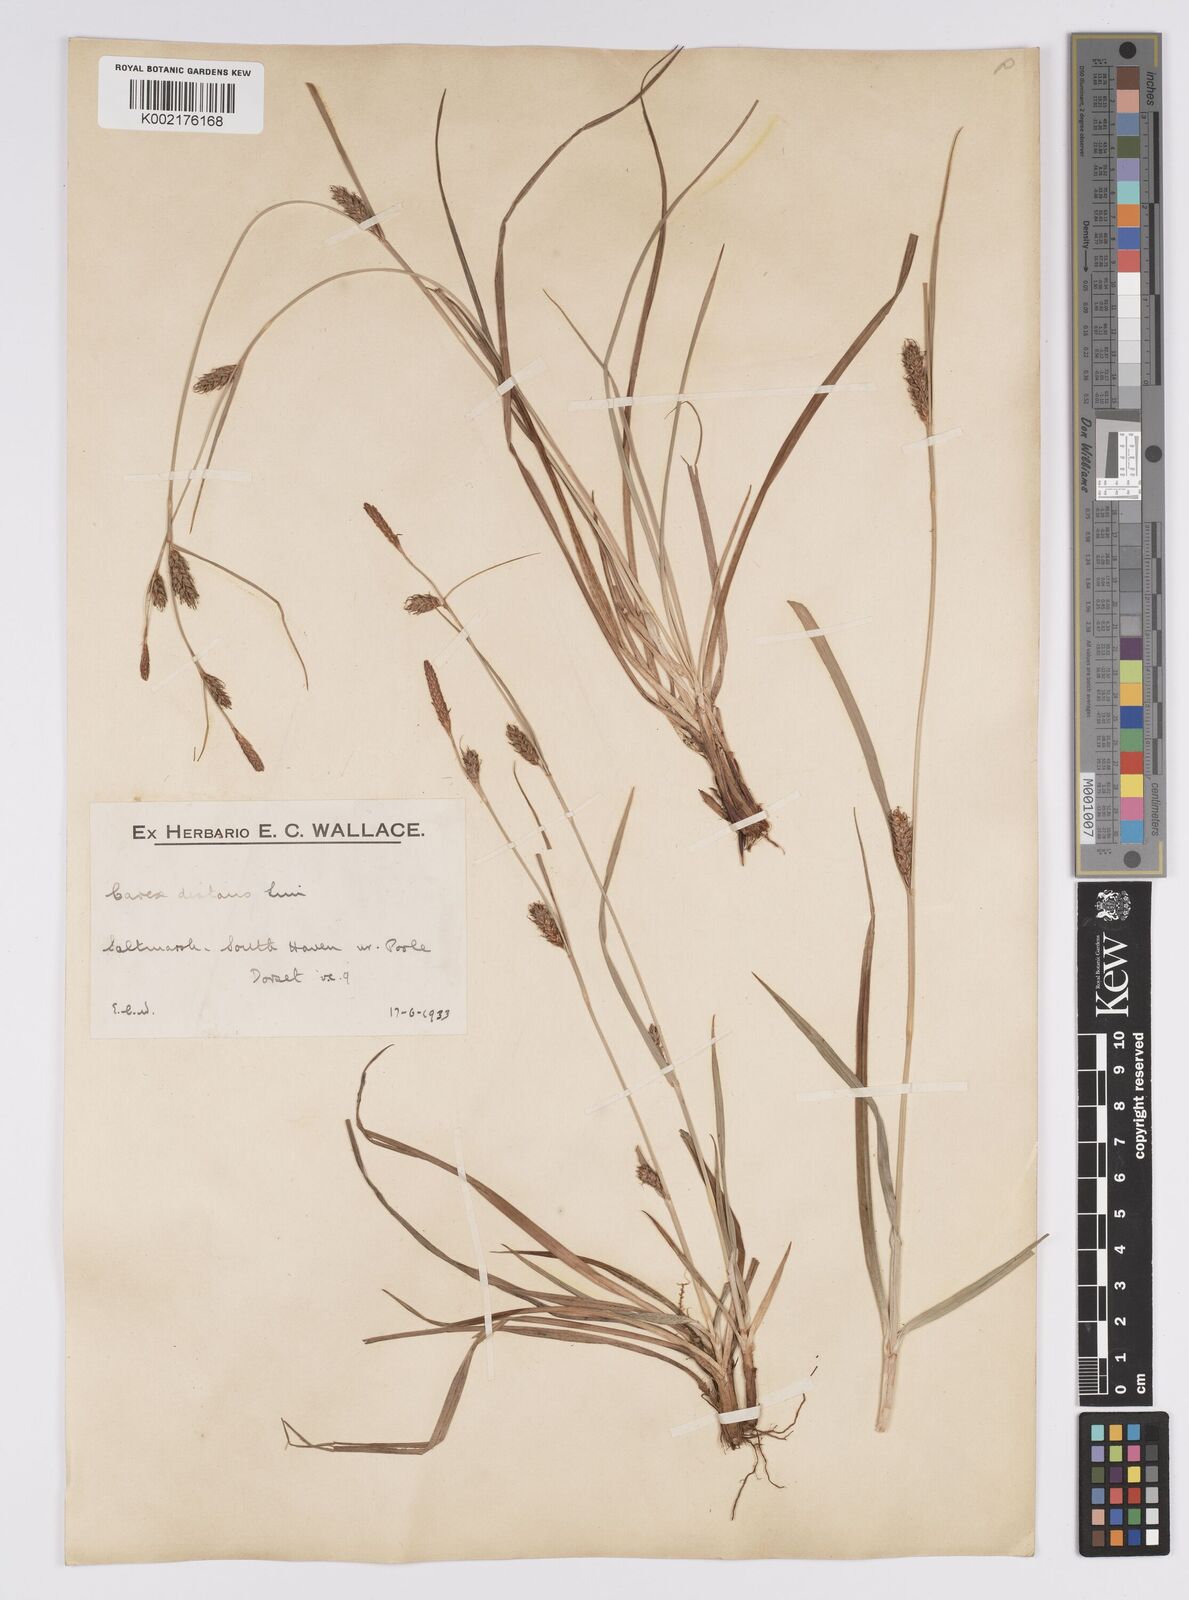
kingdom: Plantae
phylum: Tracheophyta
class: Liliopsida
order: Poales
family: Cyperaceae
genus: Carex
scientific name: Carex distans
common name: Distant sedge
